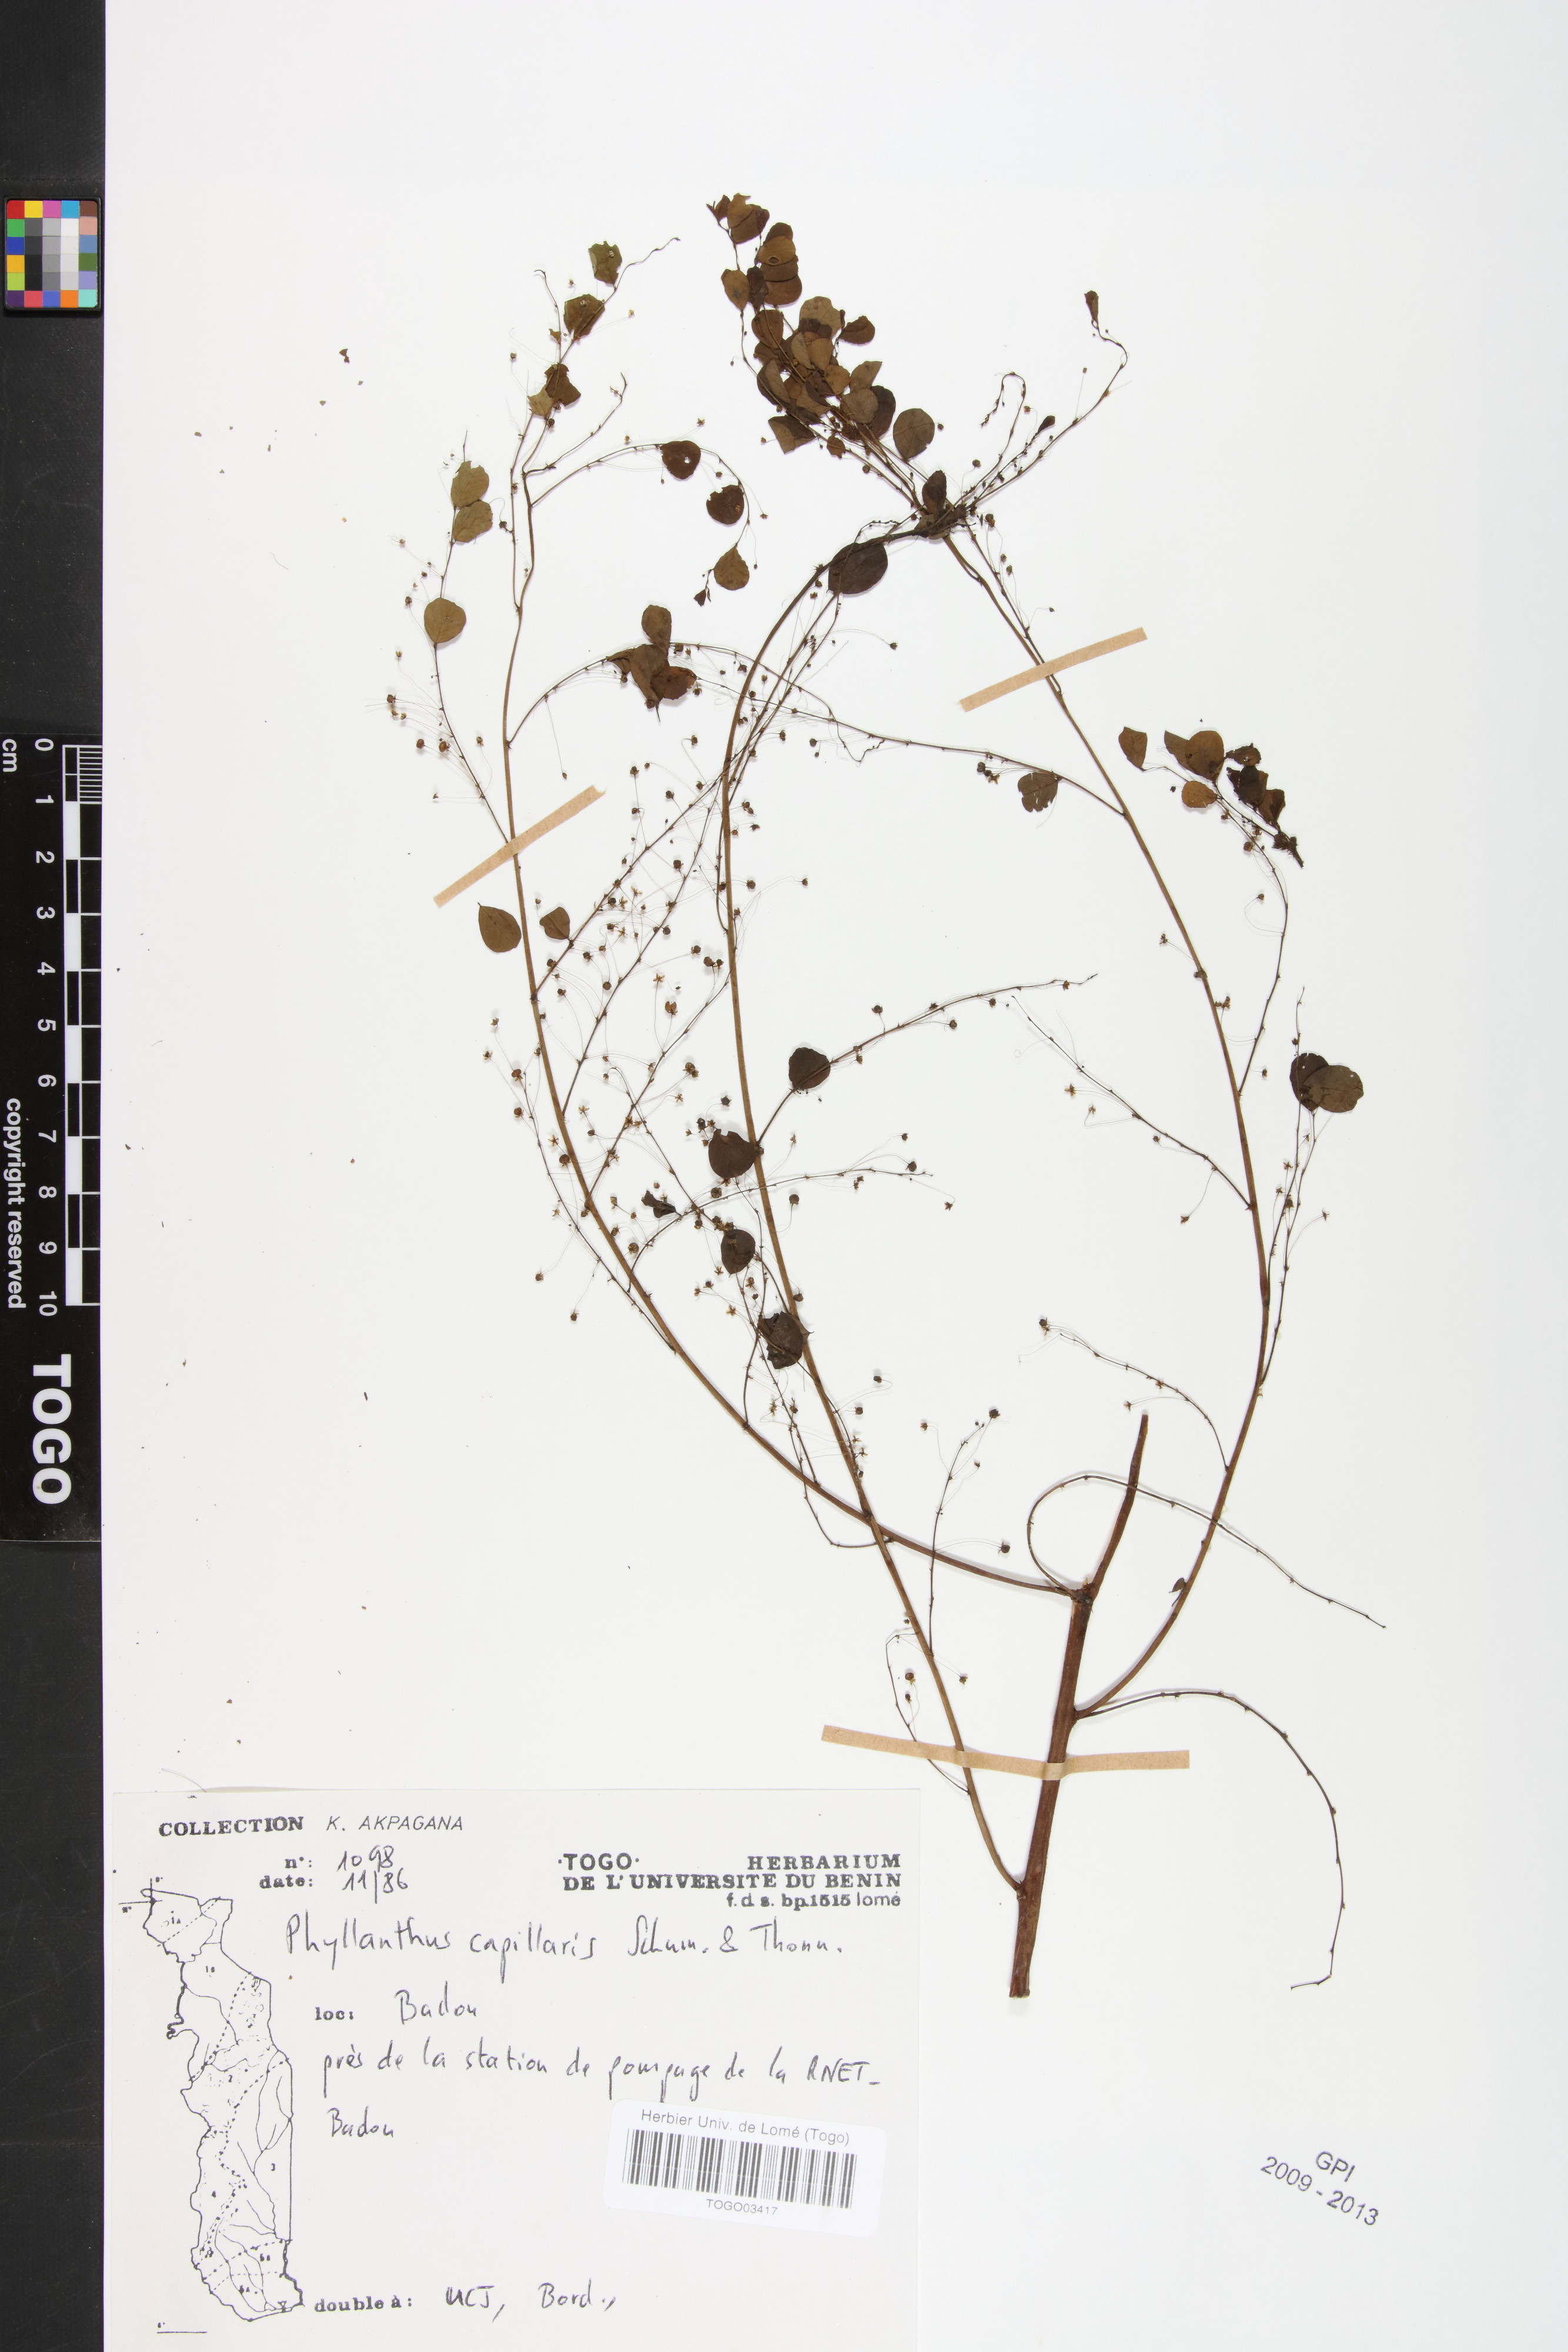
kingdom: Plantae
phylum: Tracheophyta
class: Magnoliopsida
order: Malpighiales
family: Phyllanthaceae
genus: Phyllanthus
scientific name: Phyllanthus nummulariifolius
